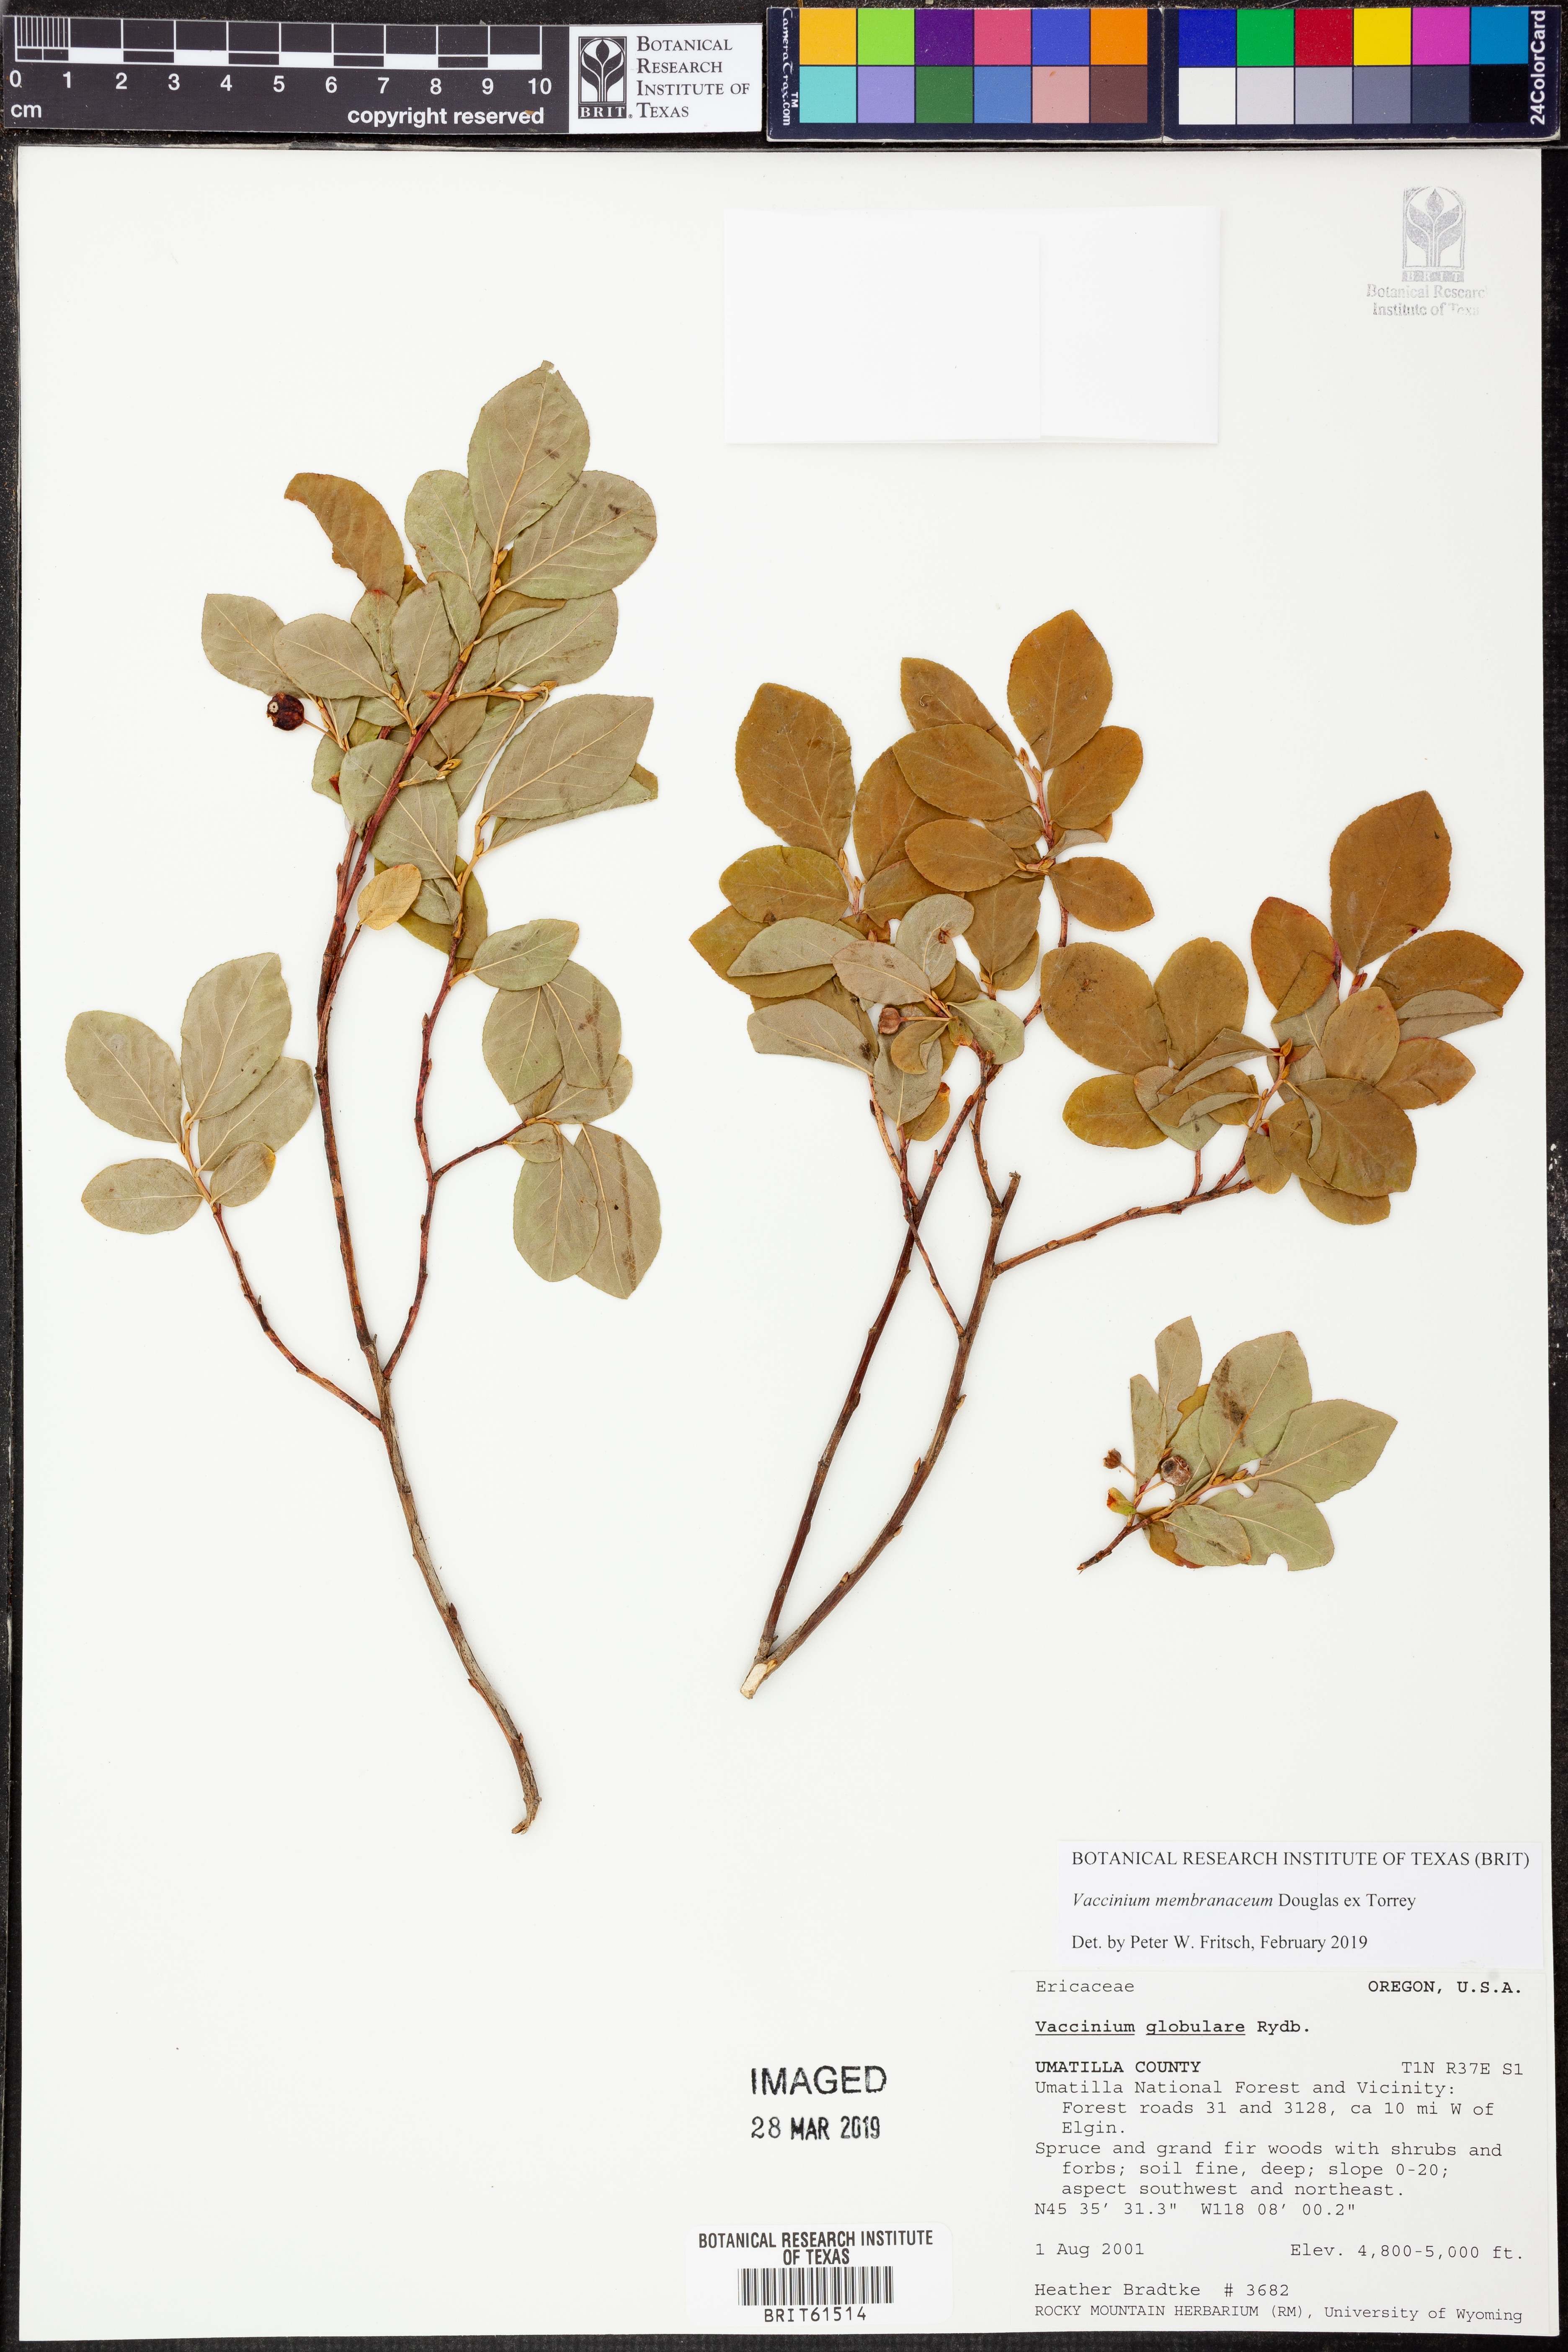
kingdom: Plantae
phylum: Tracheophyta
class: Magnoliopsida
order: Ericales
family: Ericaceae
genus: Vaccinium
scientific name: Vaccinium membranaceum
